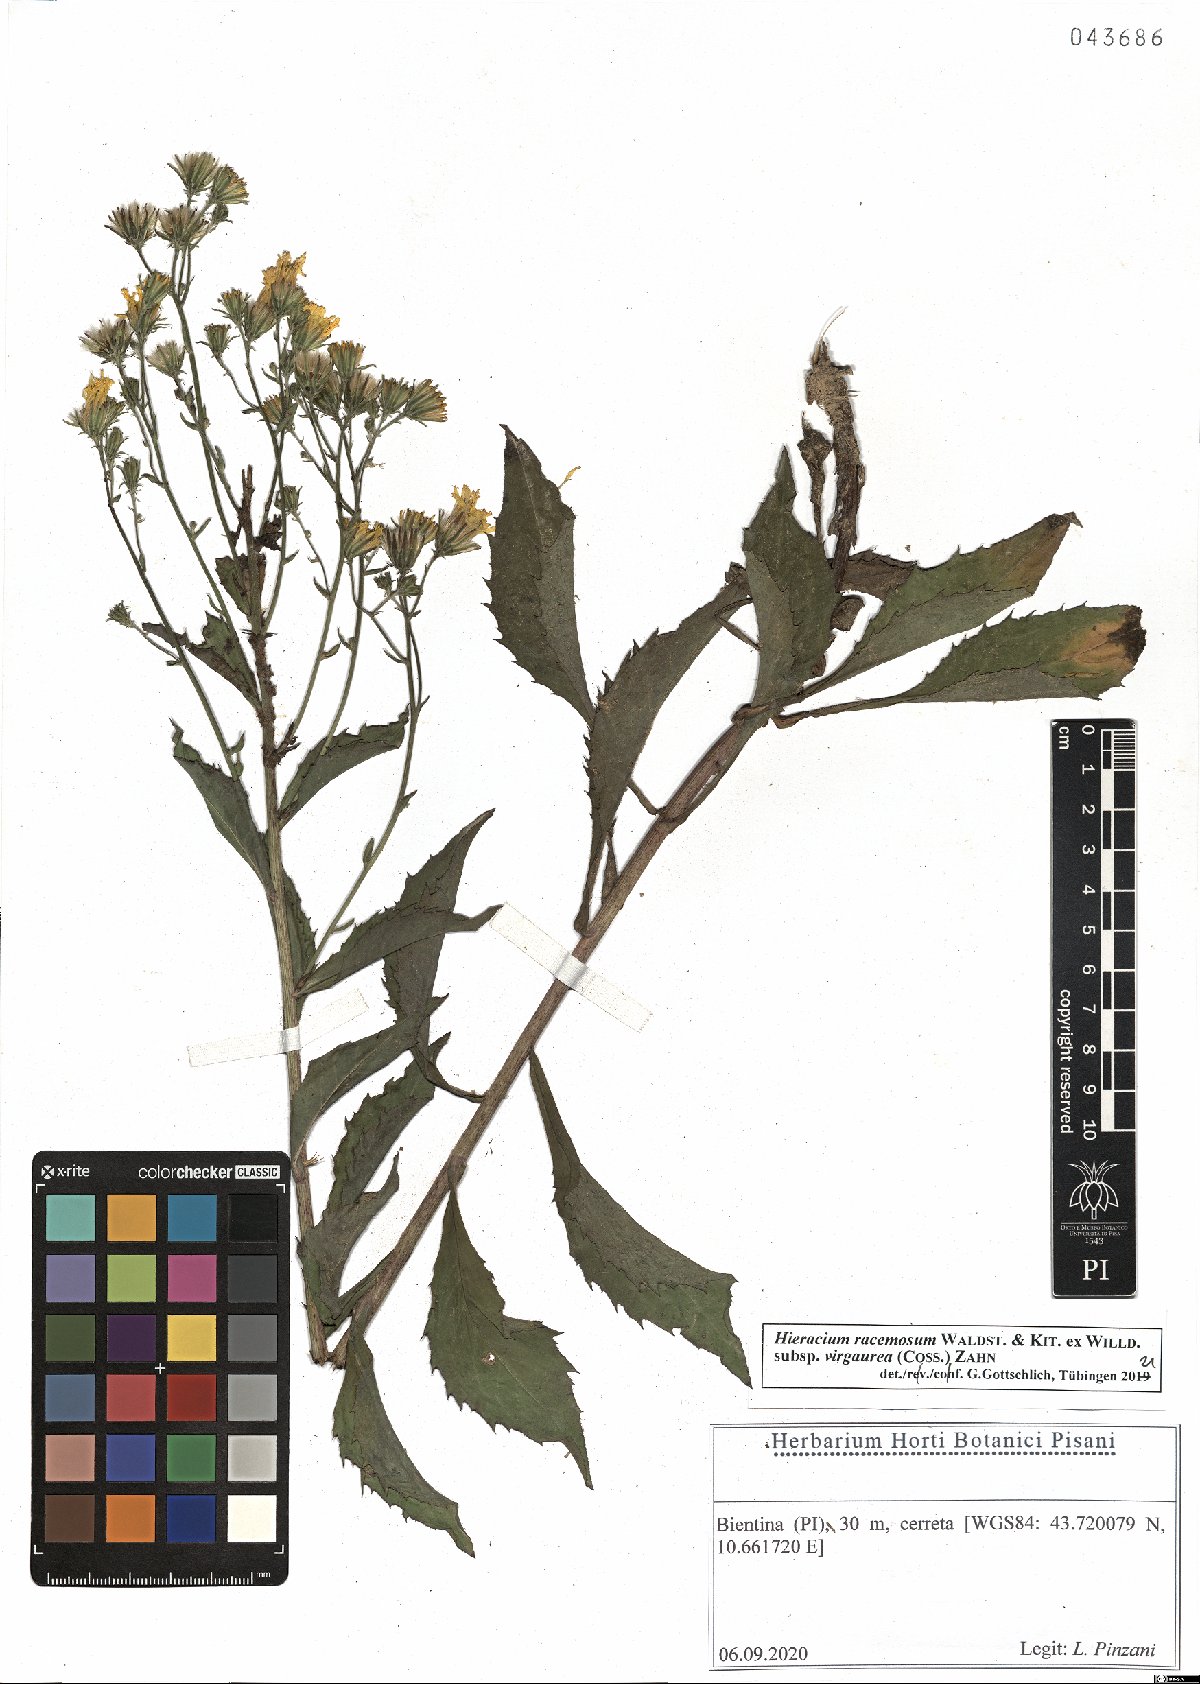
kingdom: Plantae
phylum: Tracheophyta
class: Magnoliopsida
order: Asterales
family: Asteraceae
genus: Hieracium
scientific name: Hieracium racemosum
